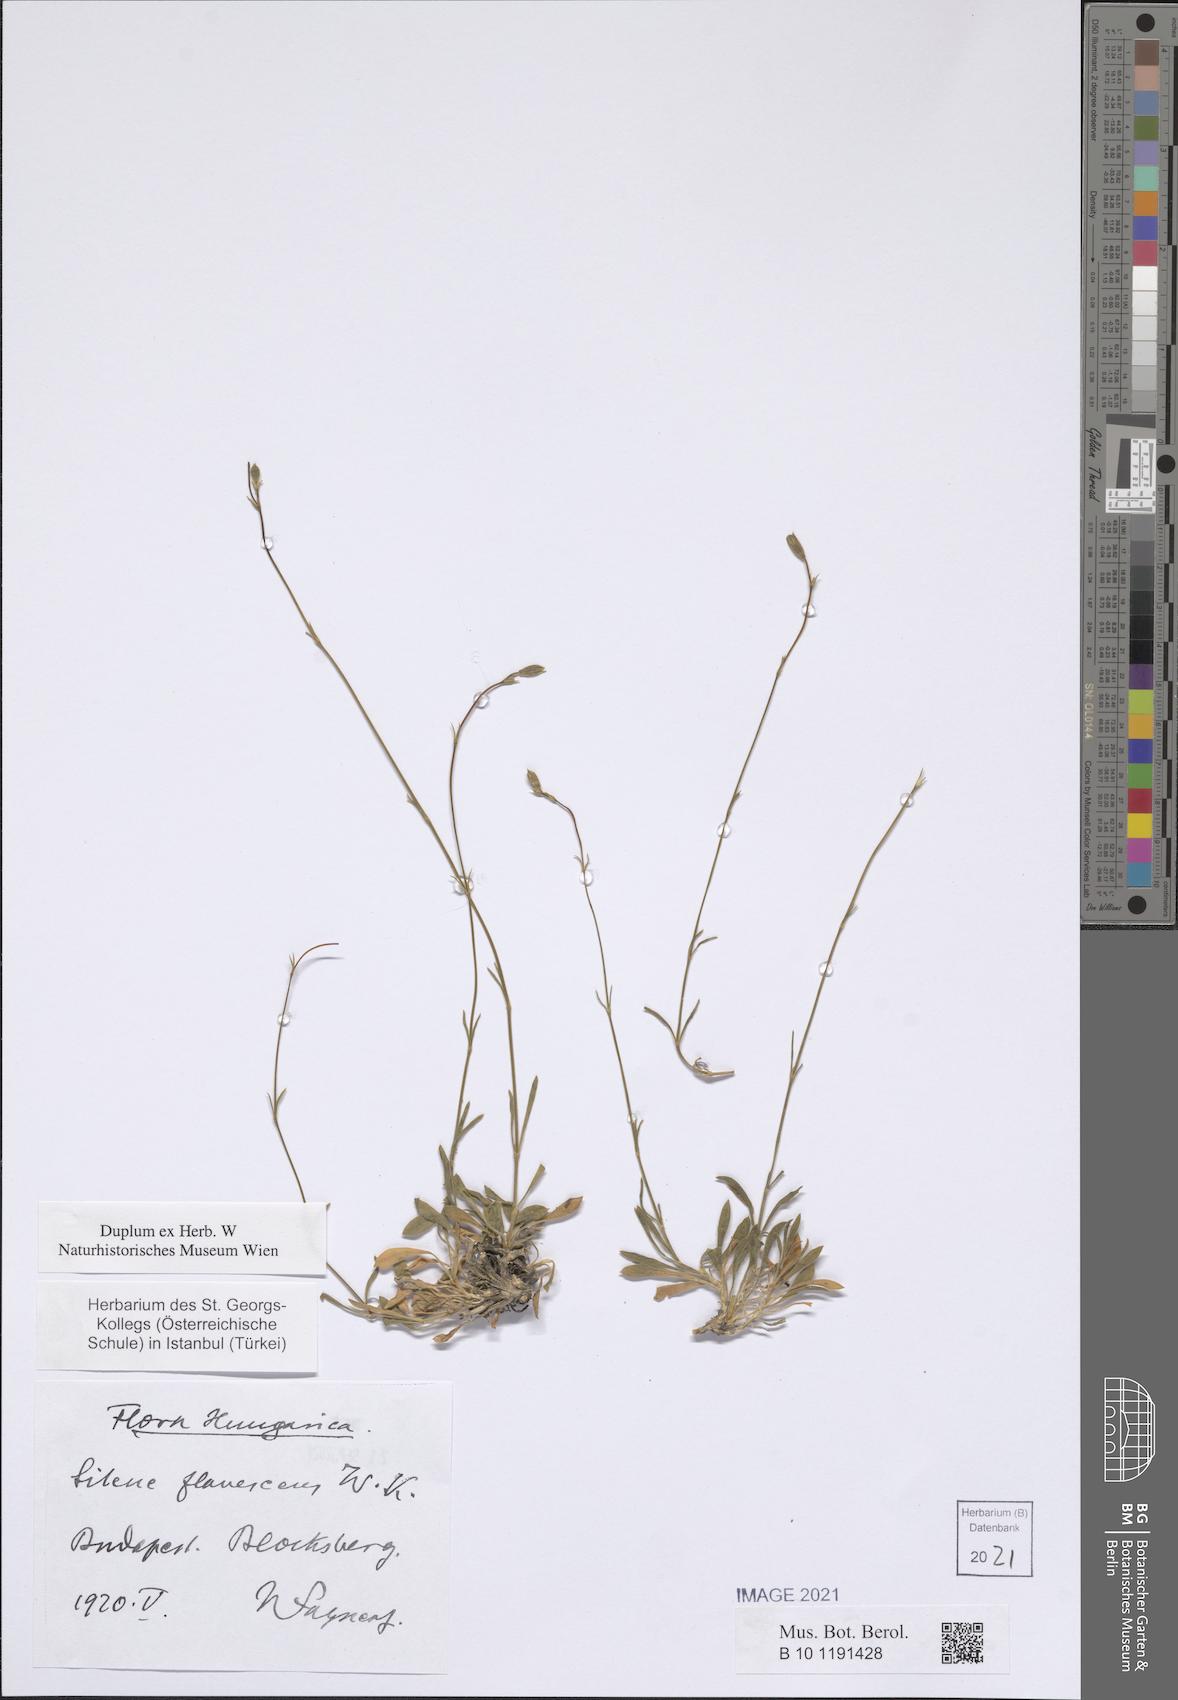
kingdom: Plantae
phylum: Tracheophyta
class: Magnoliopsida
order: Caryophyllales
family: Caryophyllaceae
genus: Silene
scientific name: Silene flavescens
